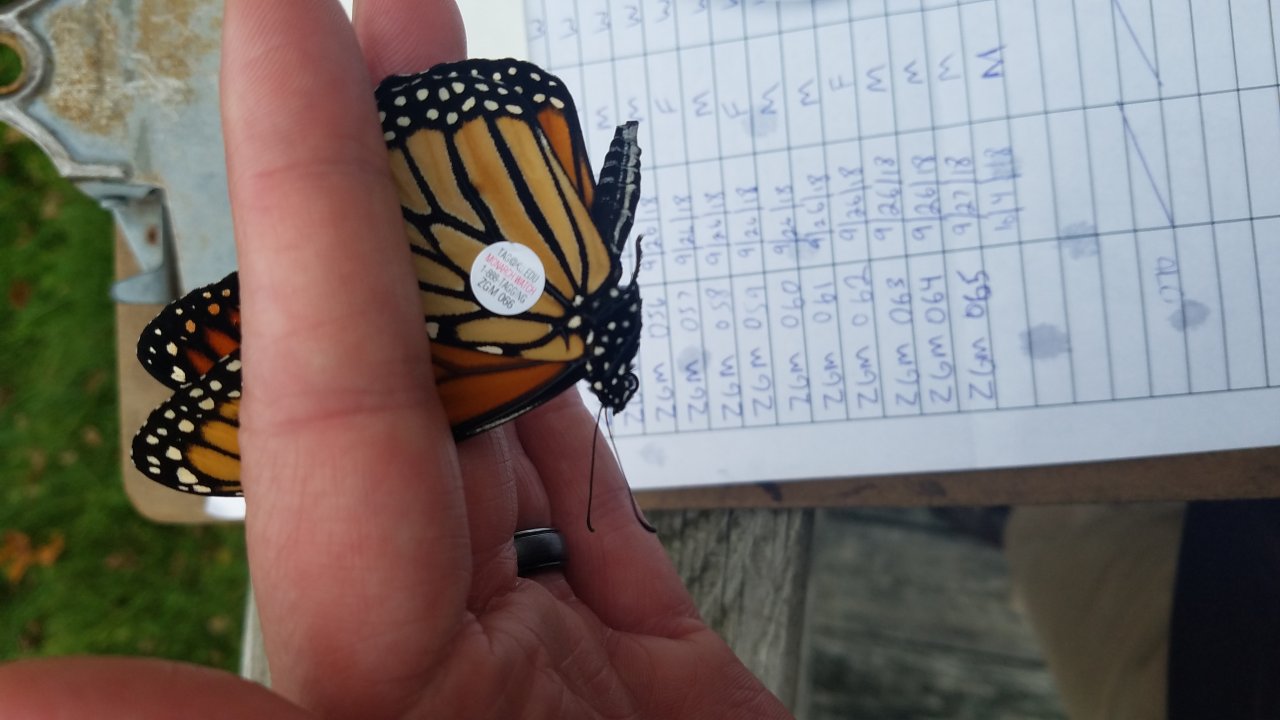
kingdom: Animalia
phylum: Arthropoda
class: Insecta
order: Lepidoptera
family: Nymphalidae
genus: Danaus
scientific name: Danaus plexippus
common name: Monarch
